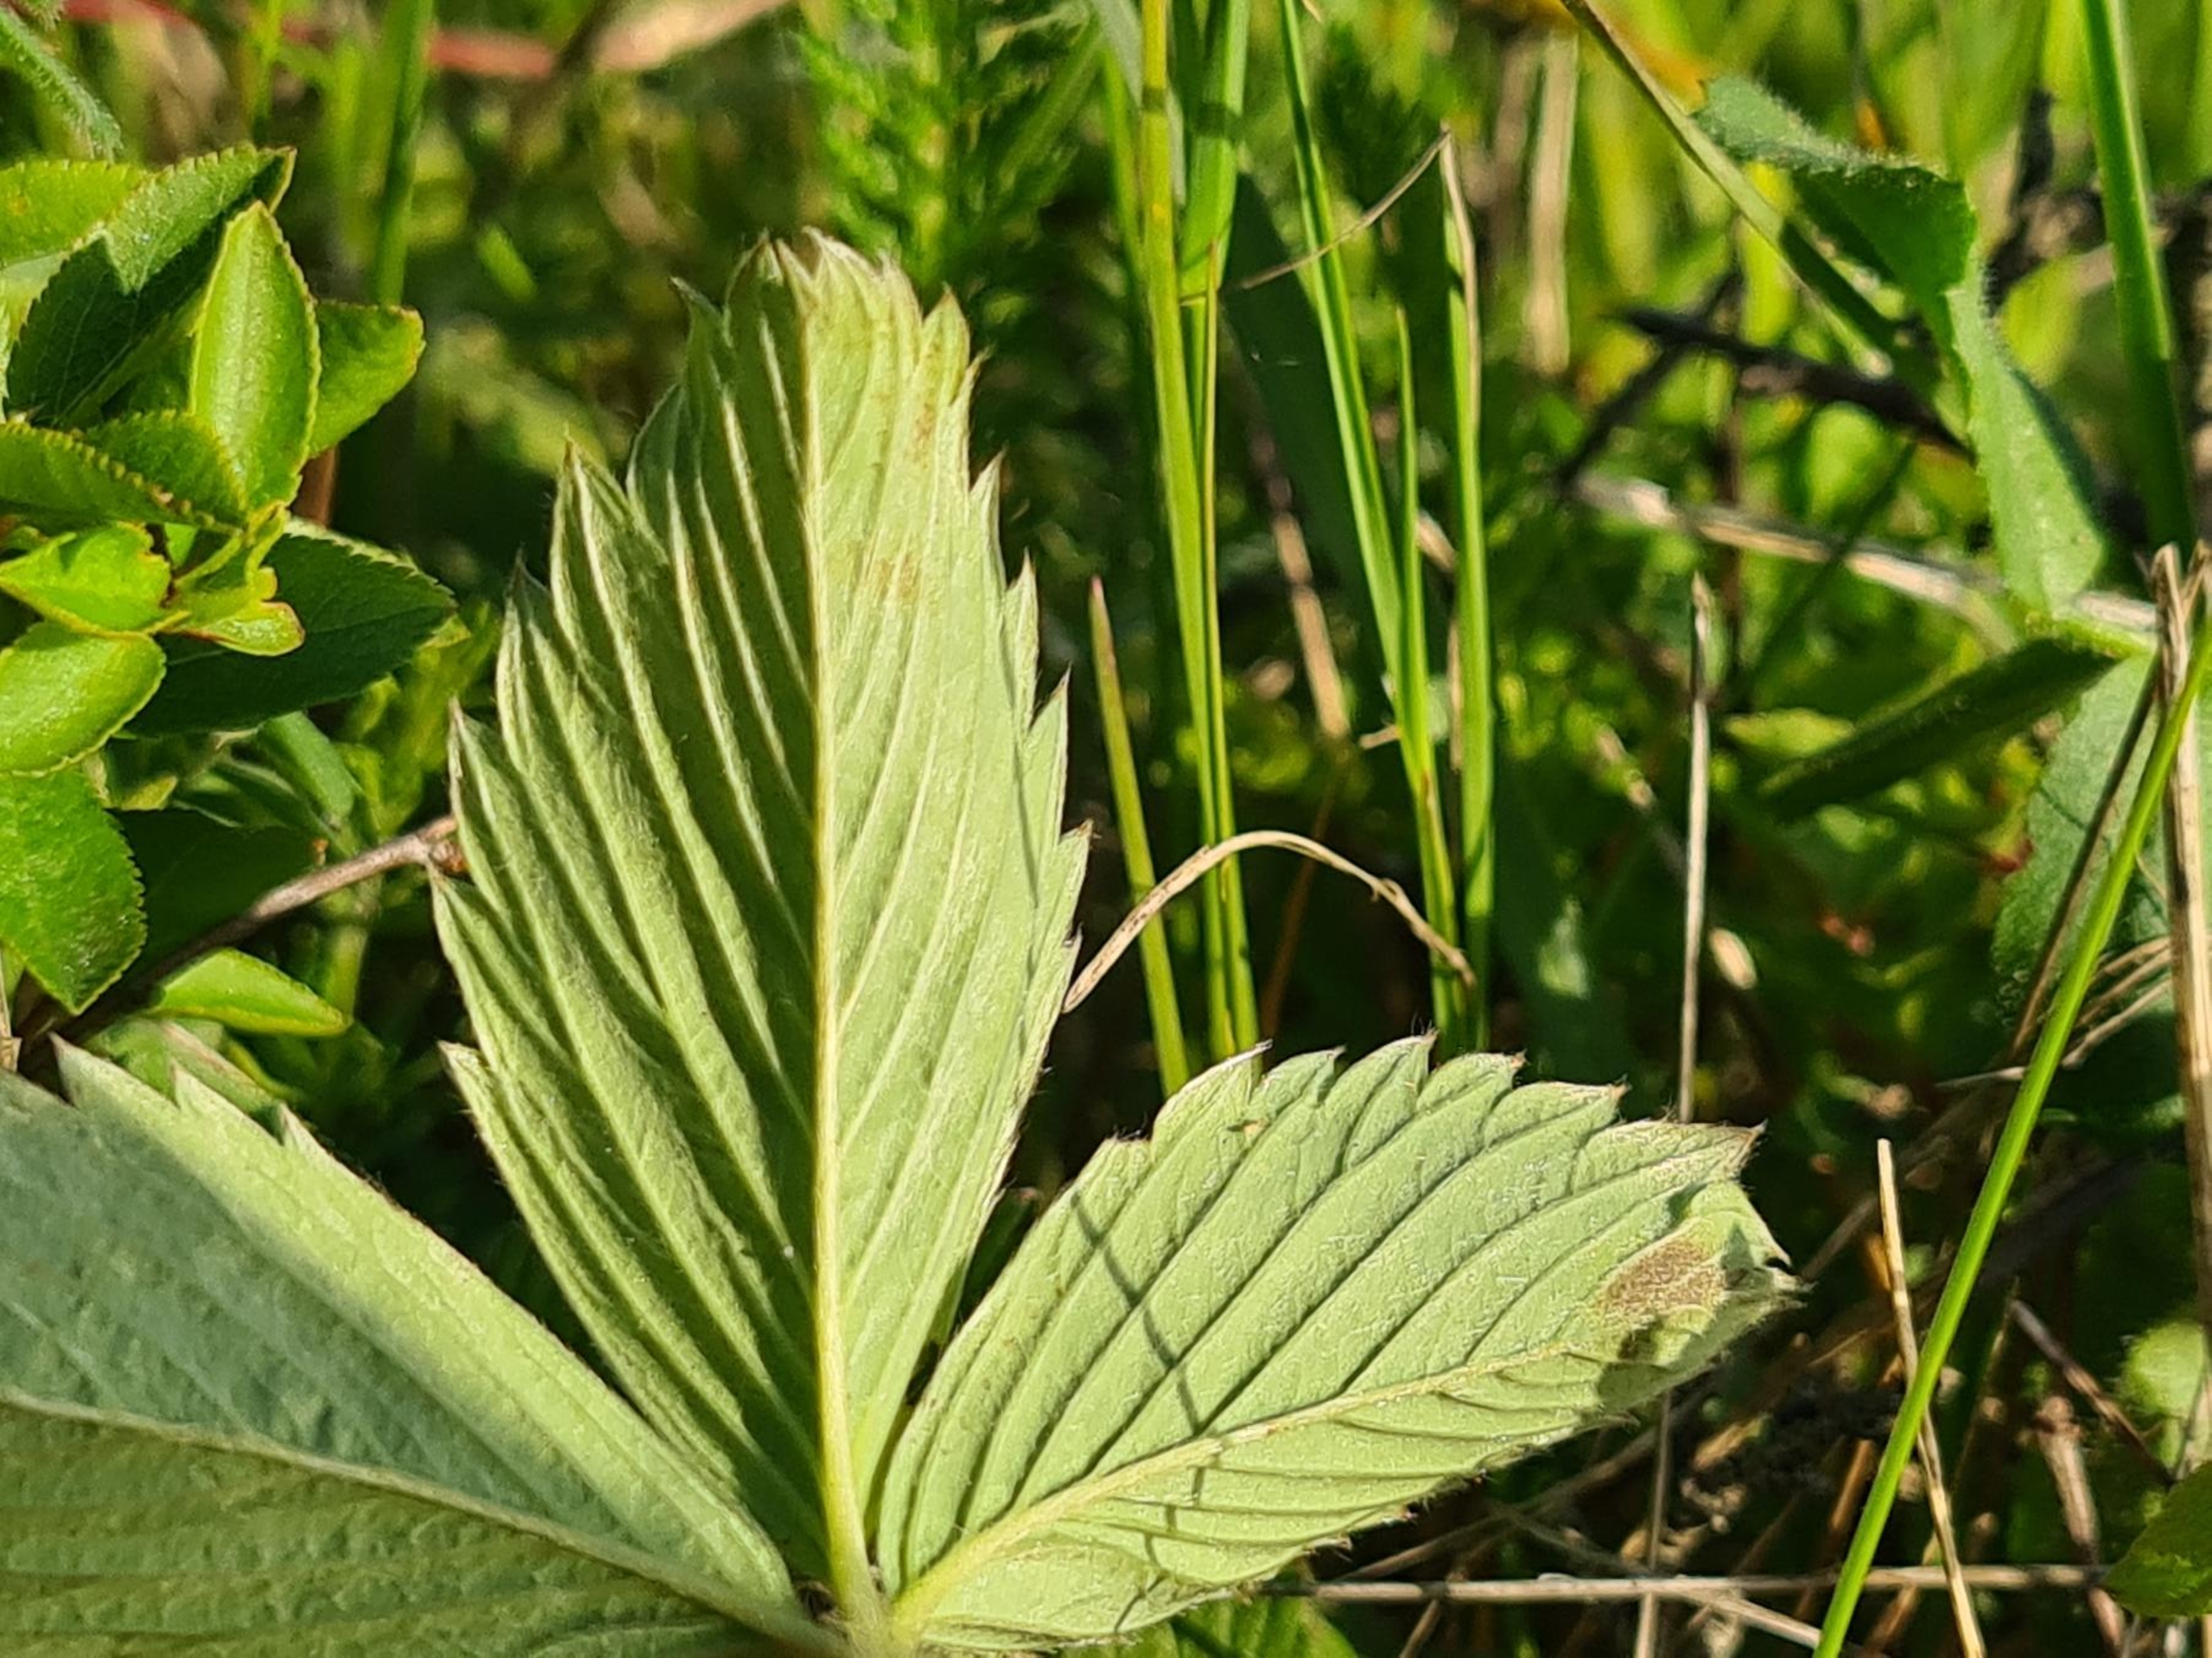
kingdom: Plantae
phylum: Tracheophyta
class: Magnoliopsida
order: Rosales
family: Rosaceae
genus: Fragaria
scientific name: Fragaria viridis
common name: Bakke-jordbær
